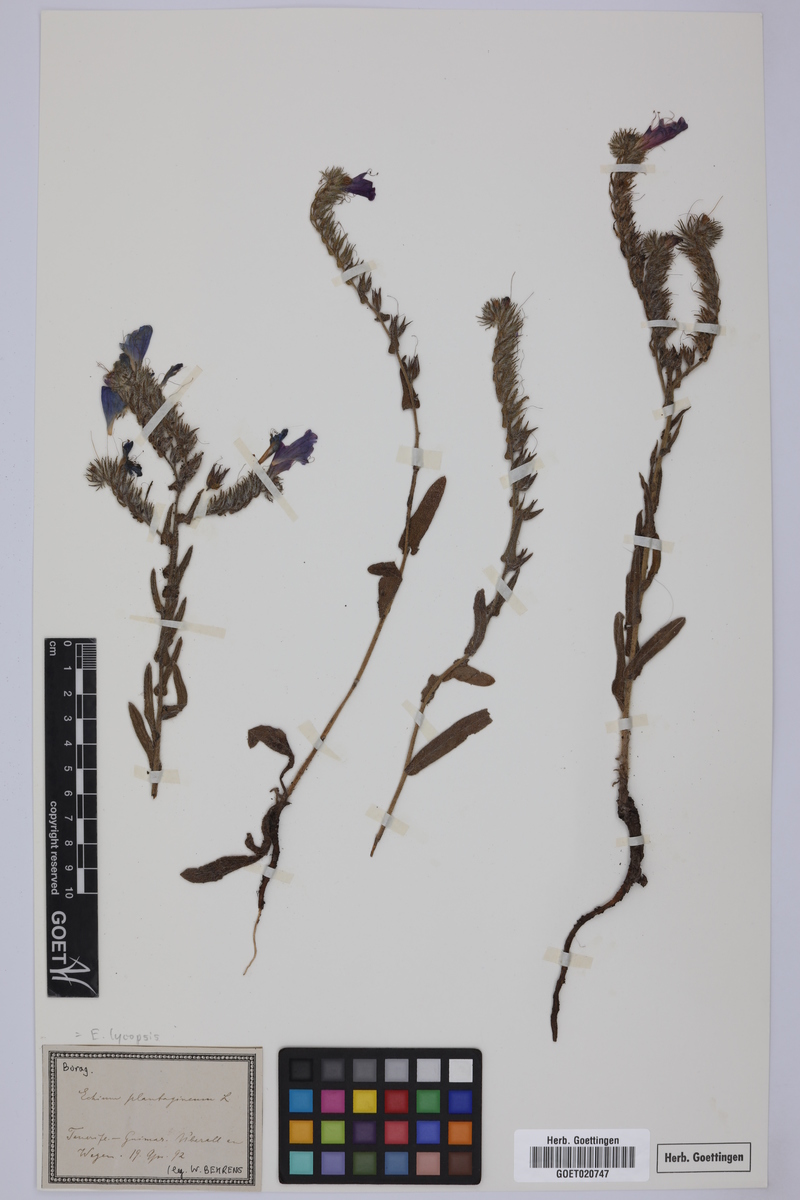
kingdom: Plantae
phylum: Tracheophyta
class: Magnoliopsida
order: Boraginales
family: Boraginaceae
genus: Echium
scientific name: Echium plantagineum
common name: Purple viper's-bugloss
